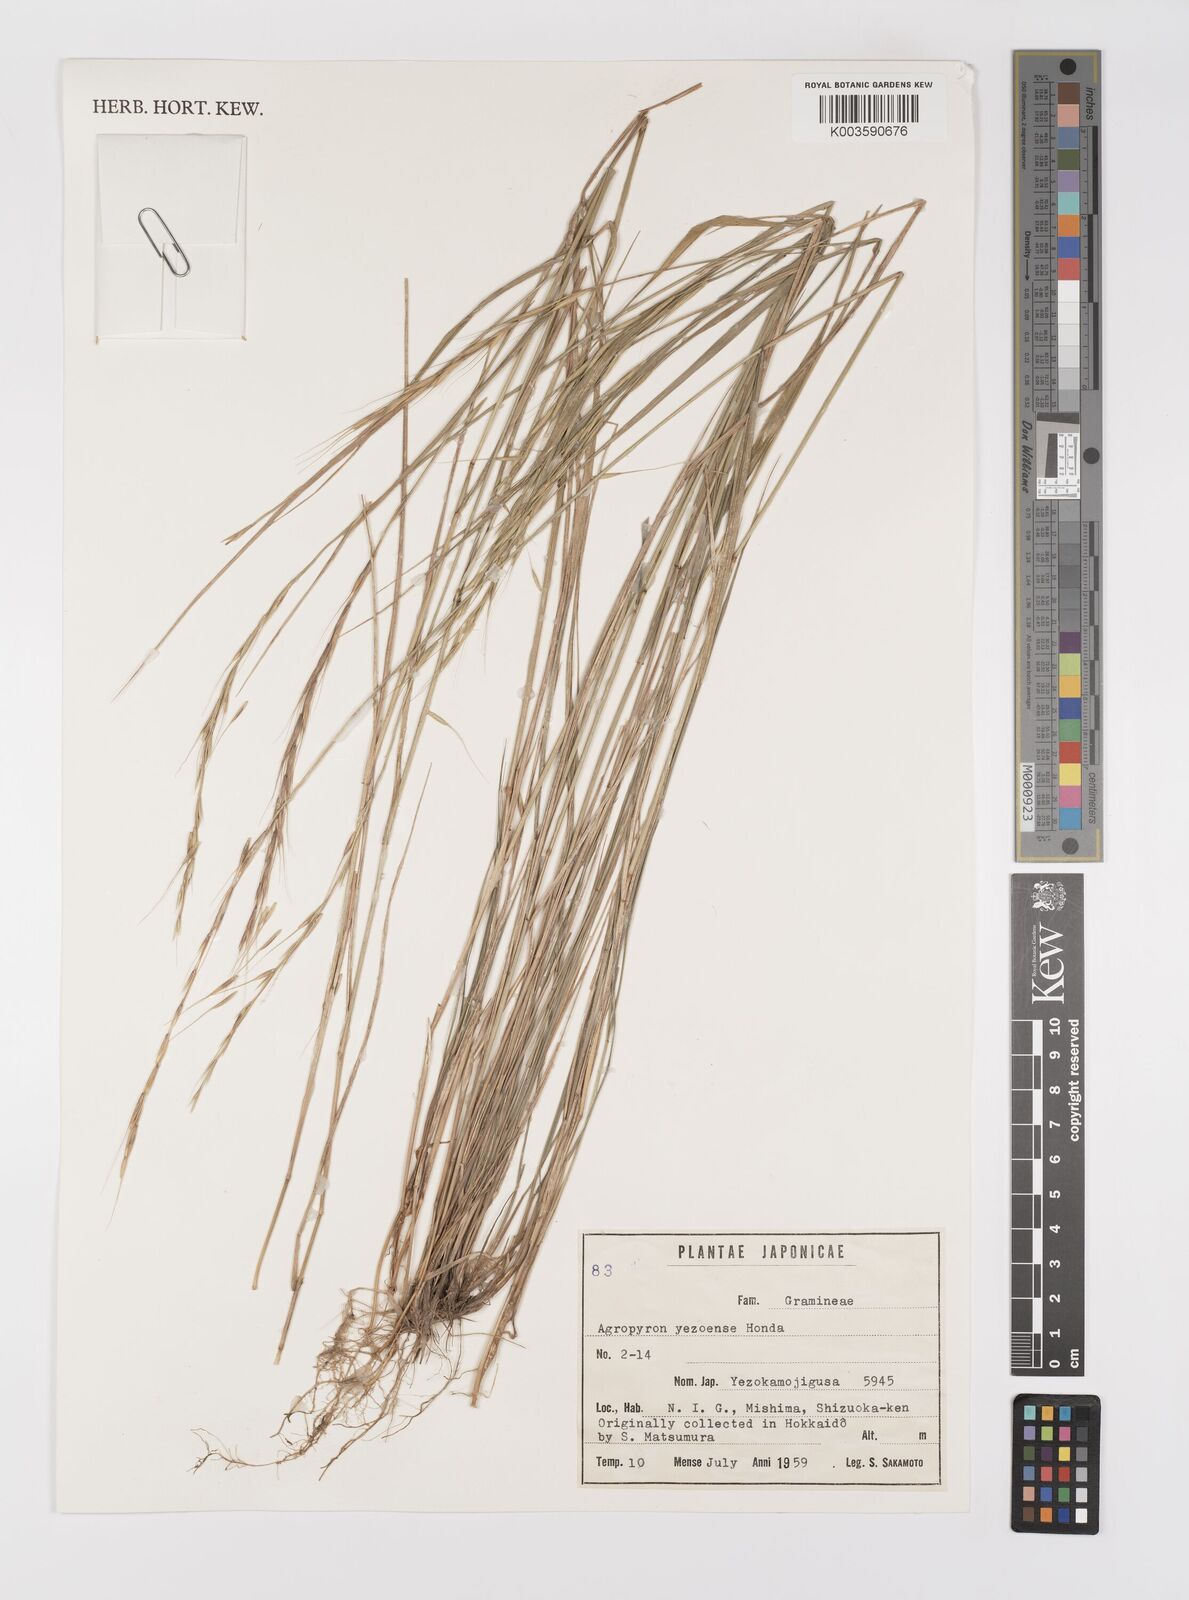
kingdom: Plantae
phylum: Tracheophyta
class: Liliopsida
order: Poales
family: Poaceae
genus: Elymus
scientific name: Elymus nipponicus
